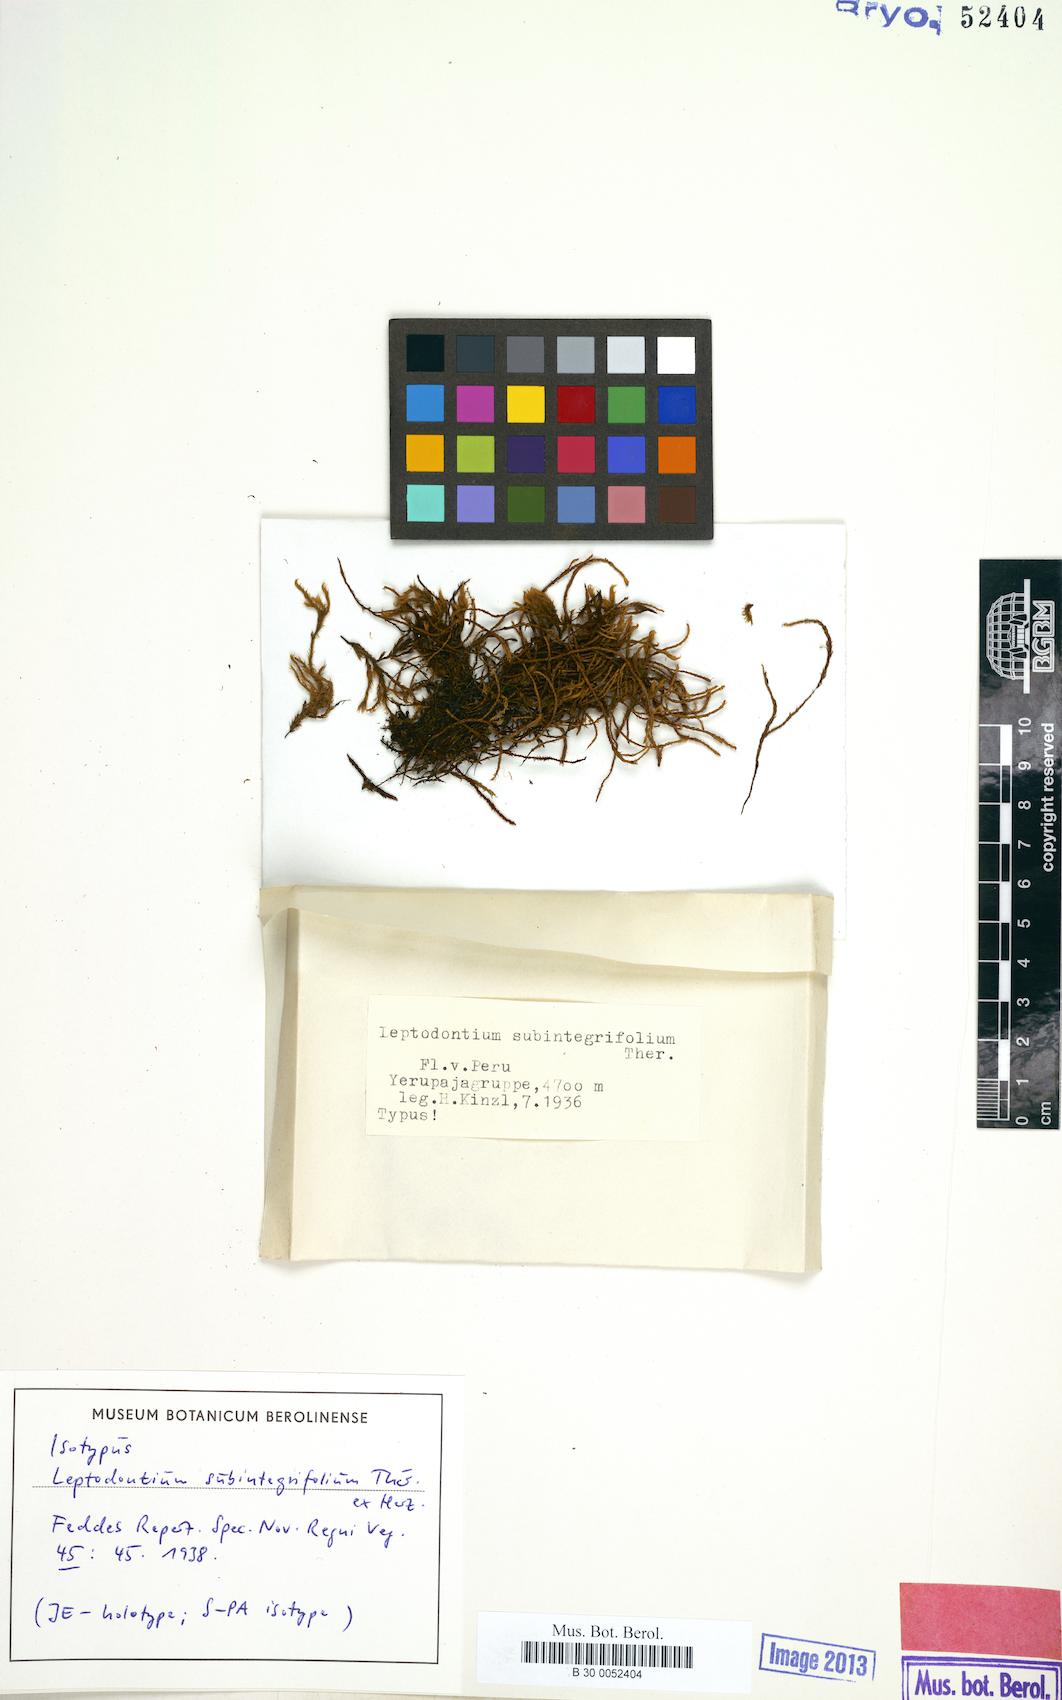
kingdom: Plantae
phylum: Bryophyta
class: Bryopsida
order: Pottiales
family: Pottiaceae
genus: Leptodontium
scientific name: Leptodontium subintegrifolium
